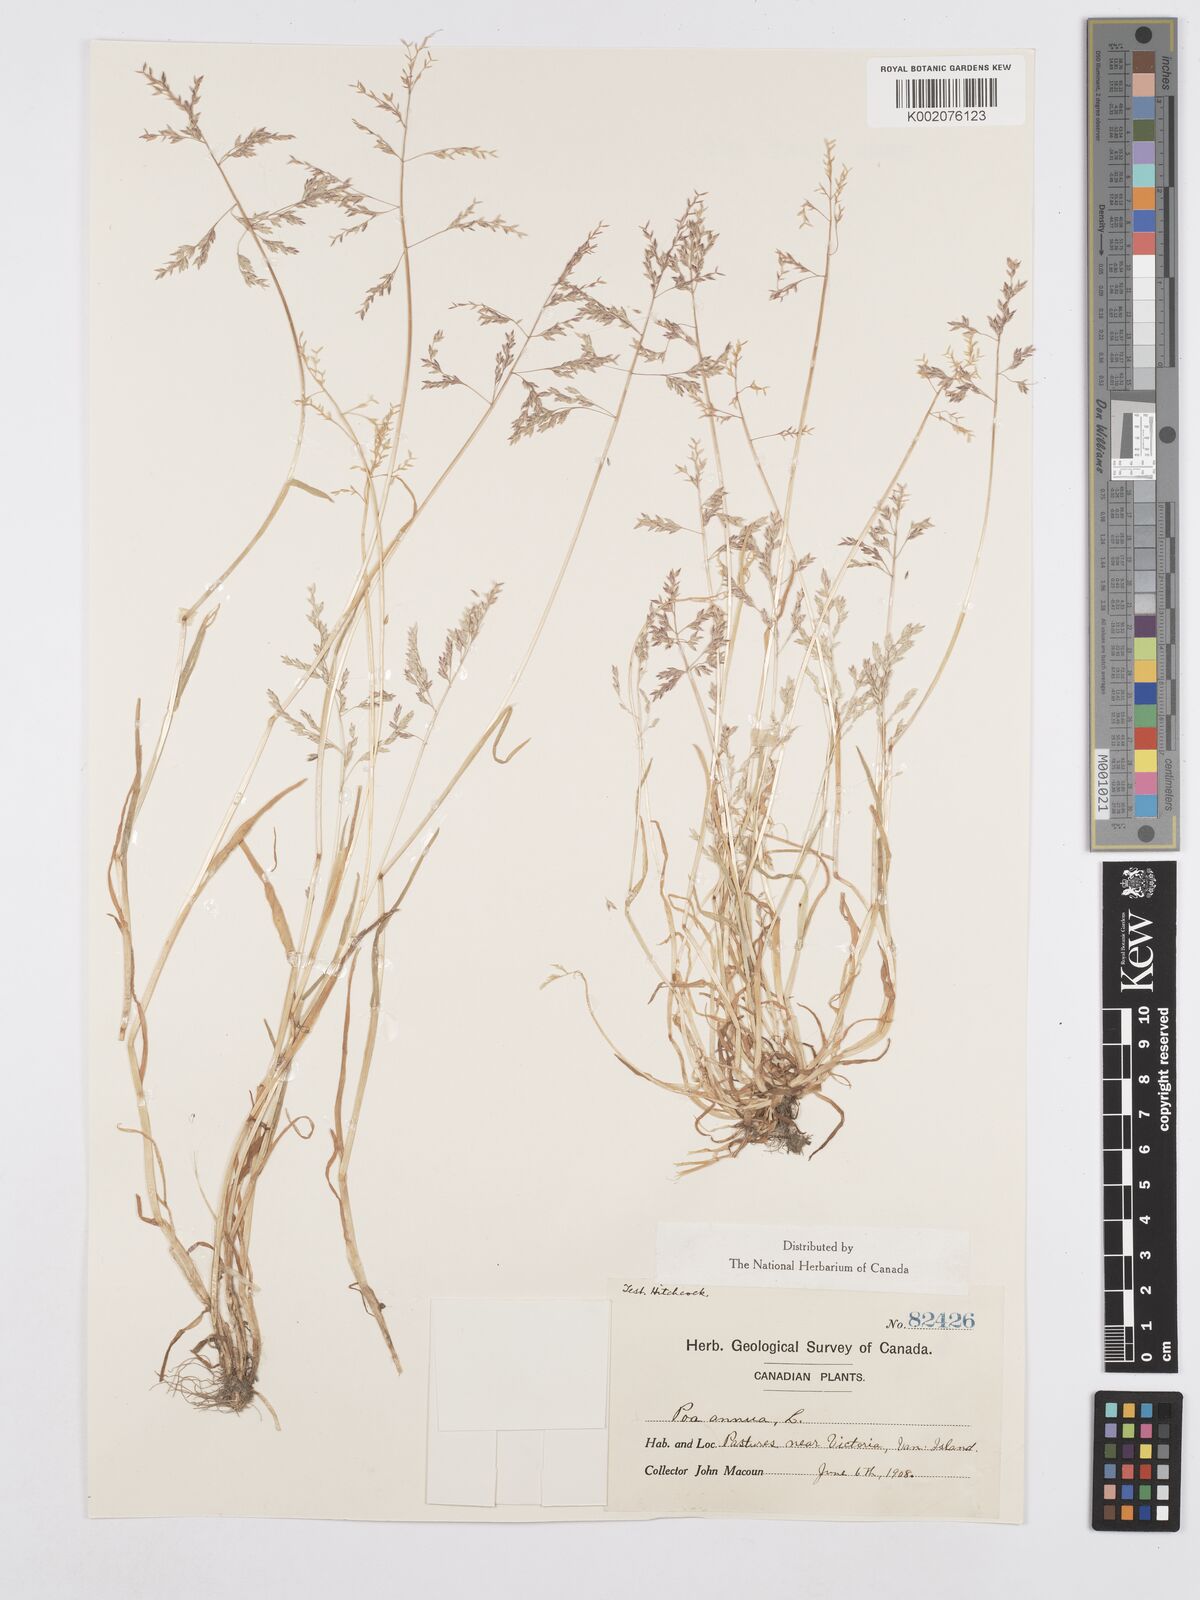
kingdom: Plantae
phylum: Tracheophyta
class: Liliopsida
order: Poales
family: Poaceae
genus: Poa
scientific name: Poa annua
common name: Annual bluegrass
